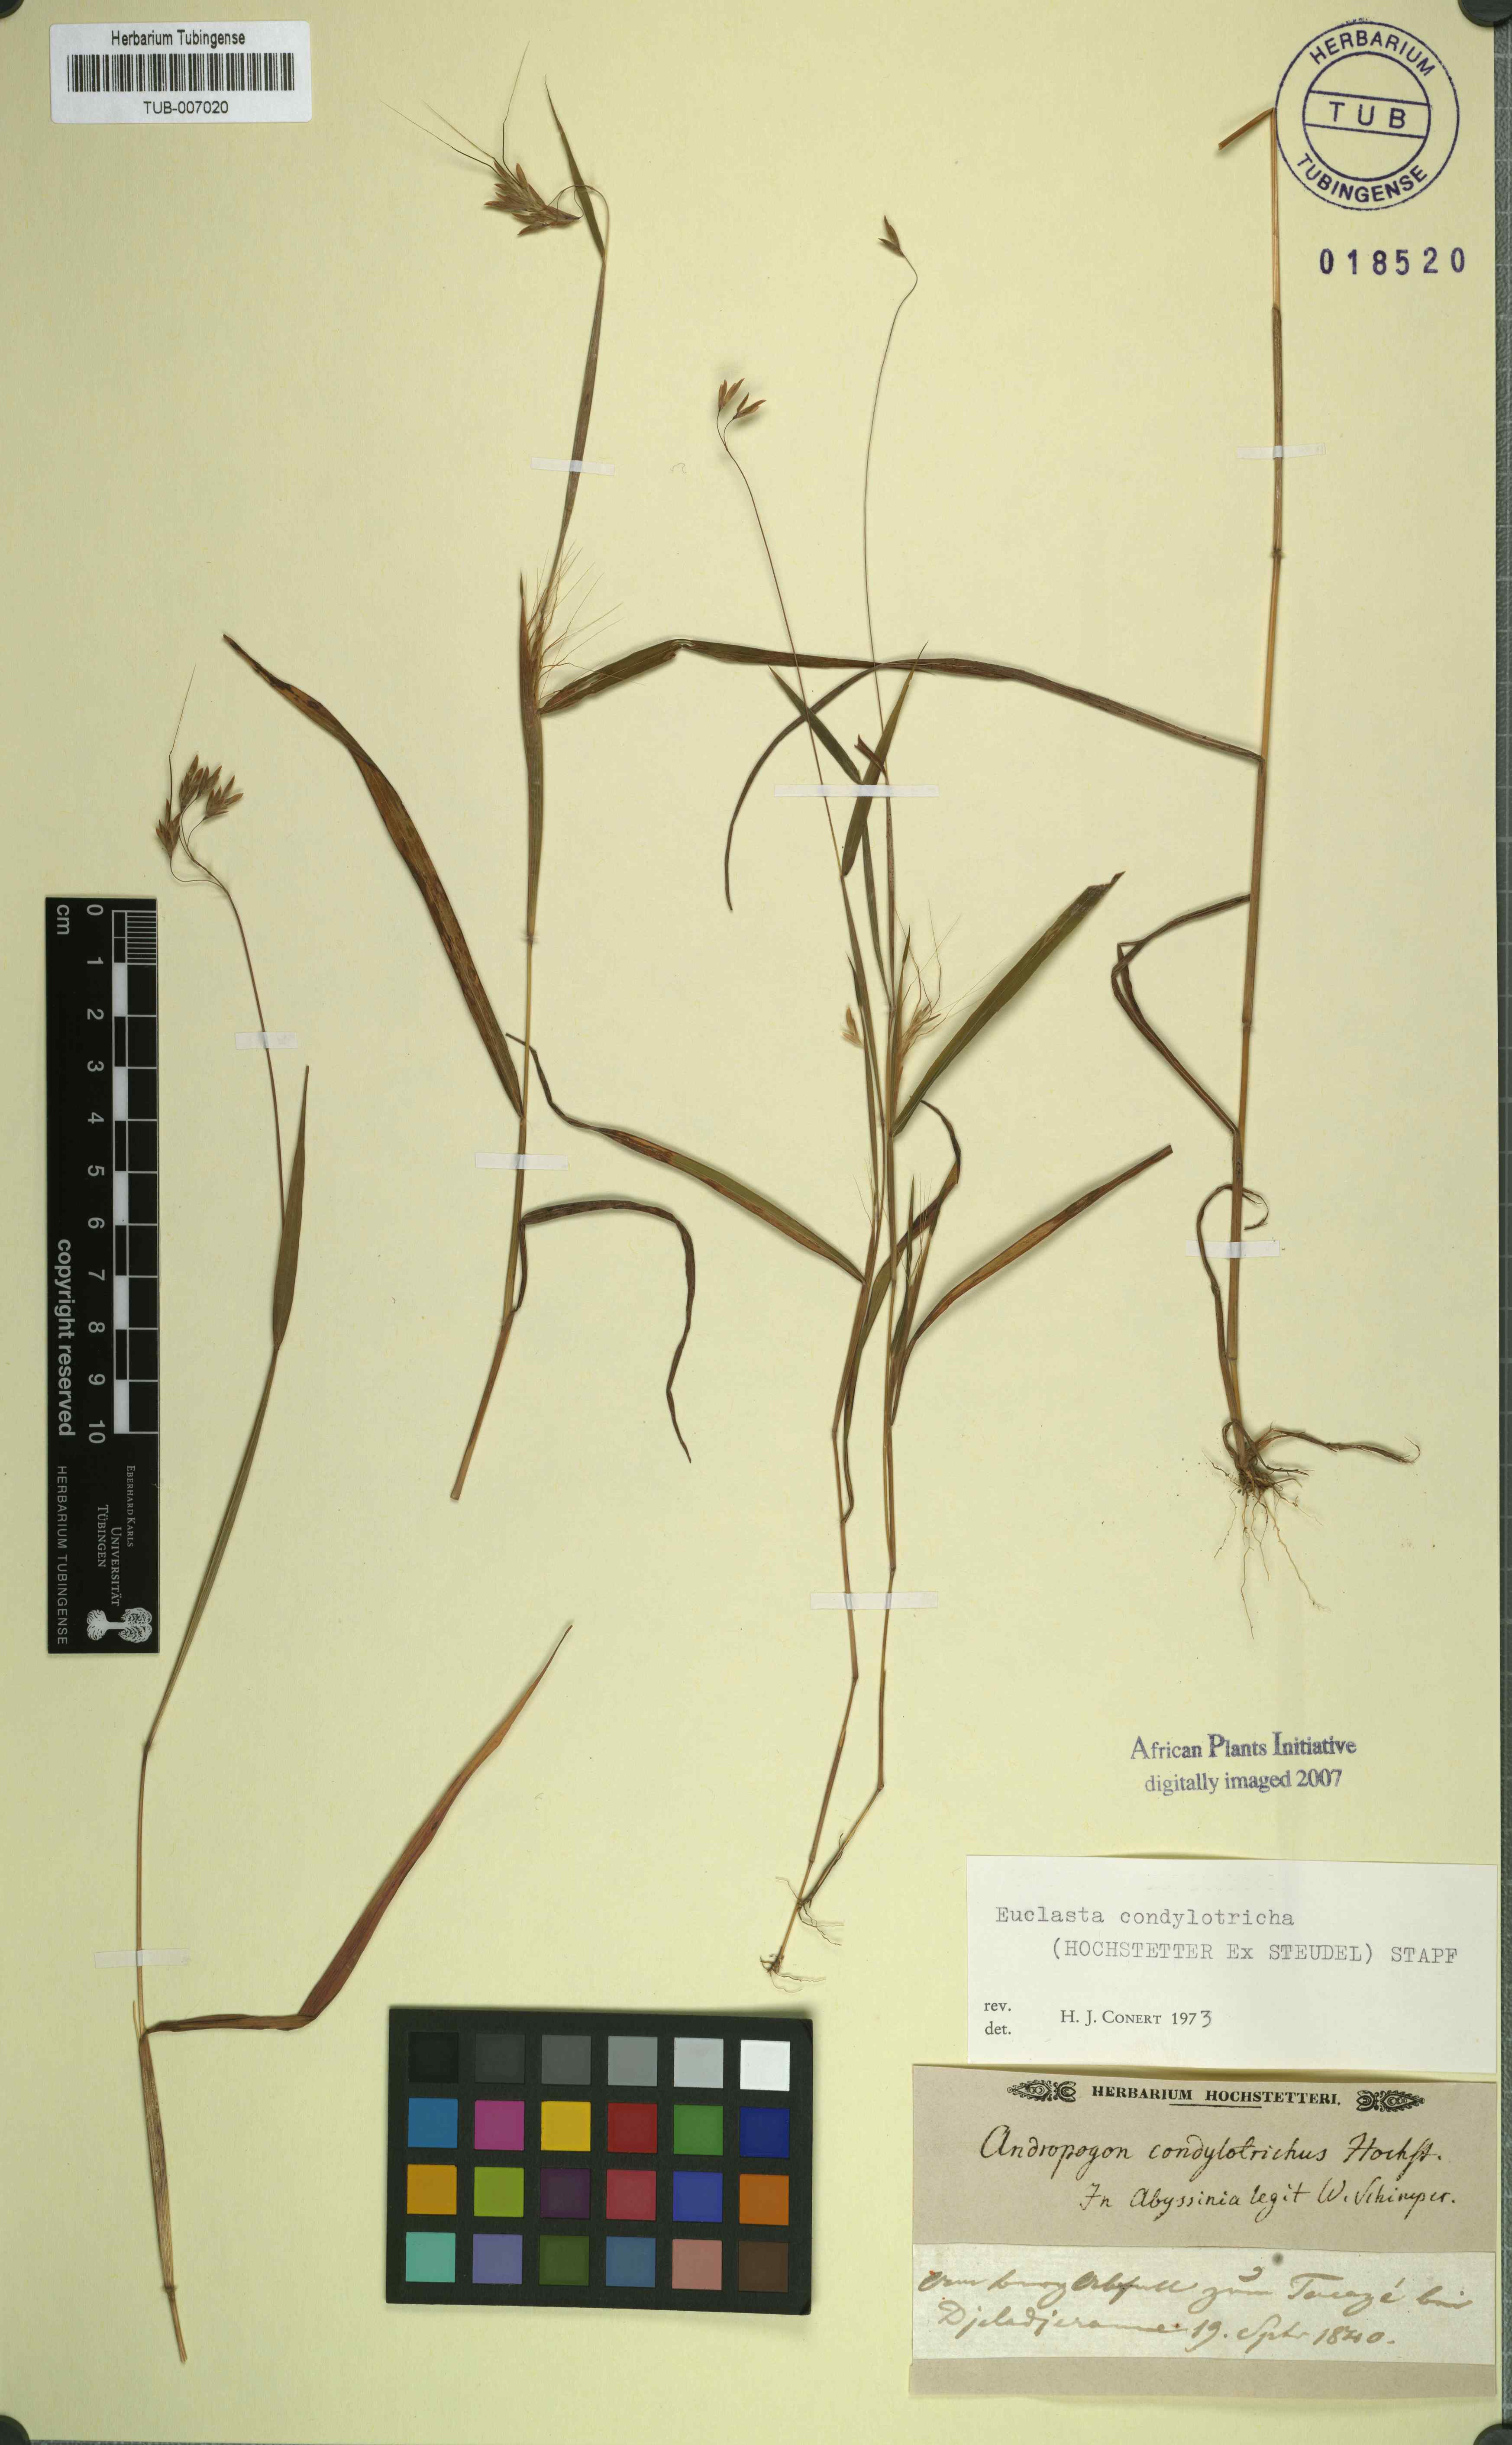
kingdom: Plantae
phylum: Tracheophyta
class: Liliopsida
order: Poales
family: Poaceae
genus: Euclasta
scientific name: Euclasta condylotricha
